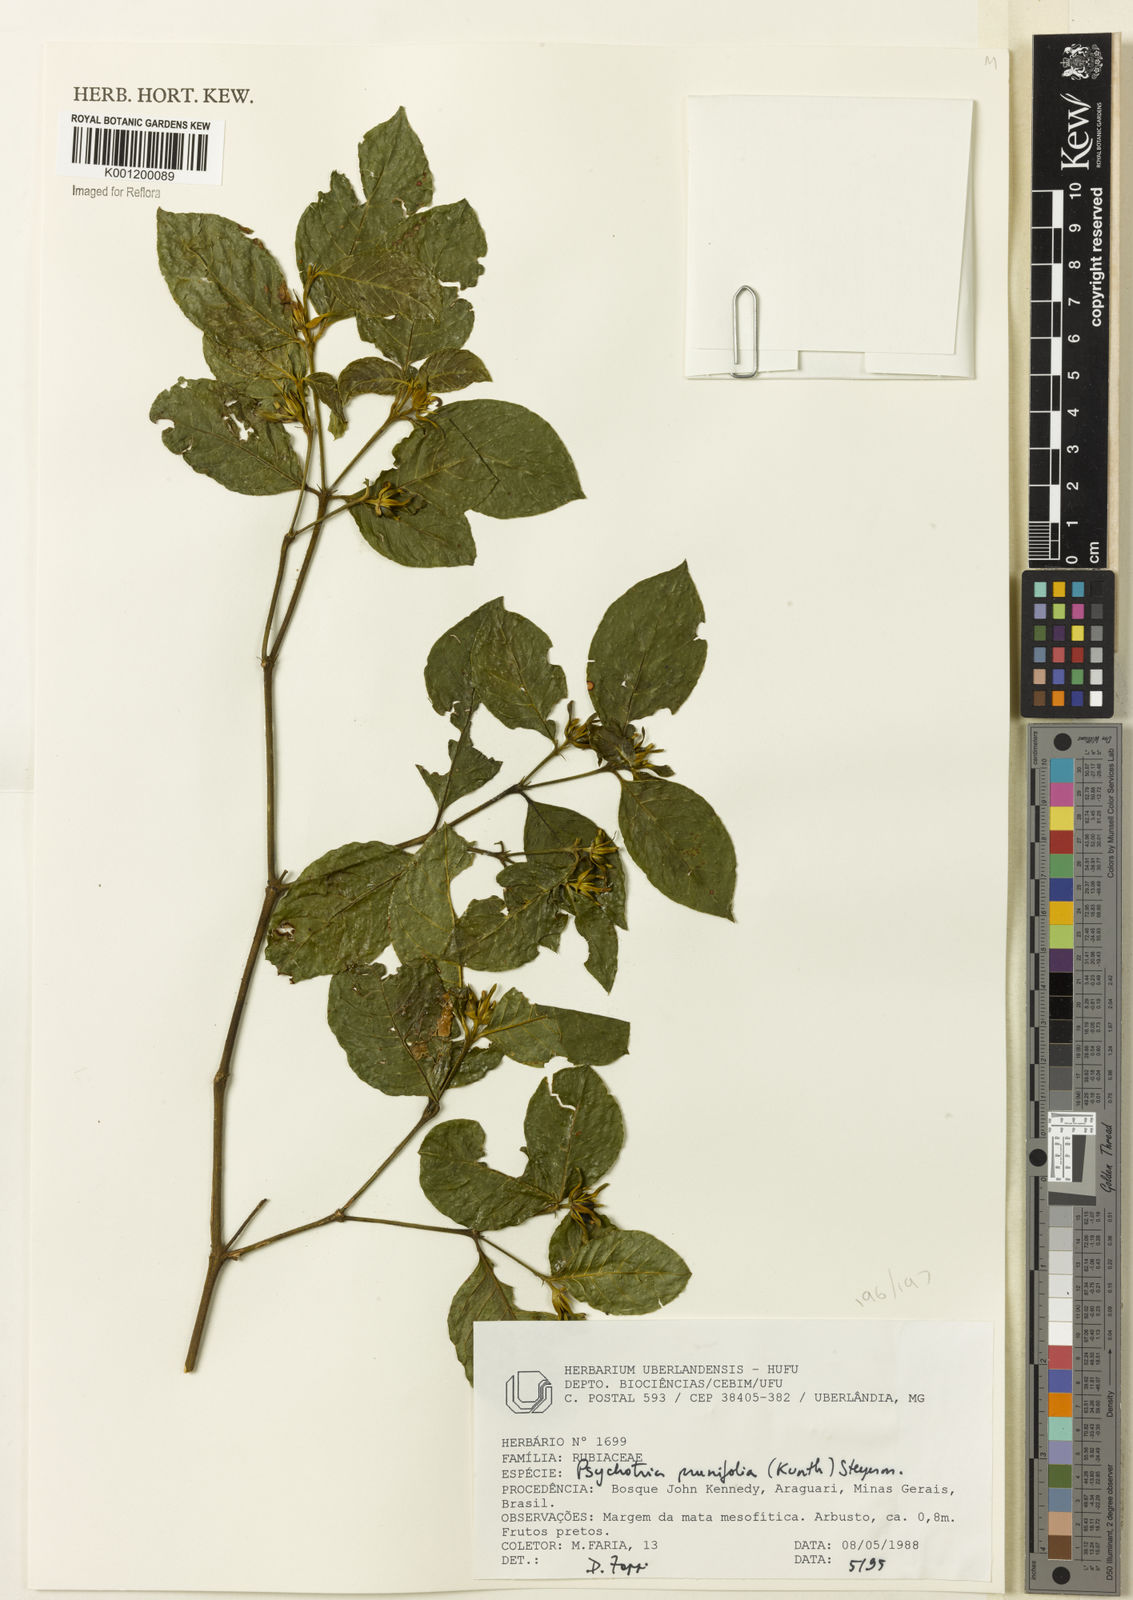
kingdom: Plantae
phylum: Tracheophyta
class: Magnoliopsida
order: Gentianales
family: Rubiaceae
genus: Palicourea
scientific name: Palicourea prunifolia
